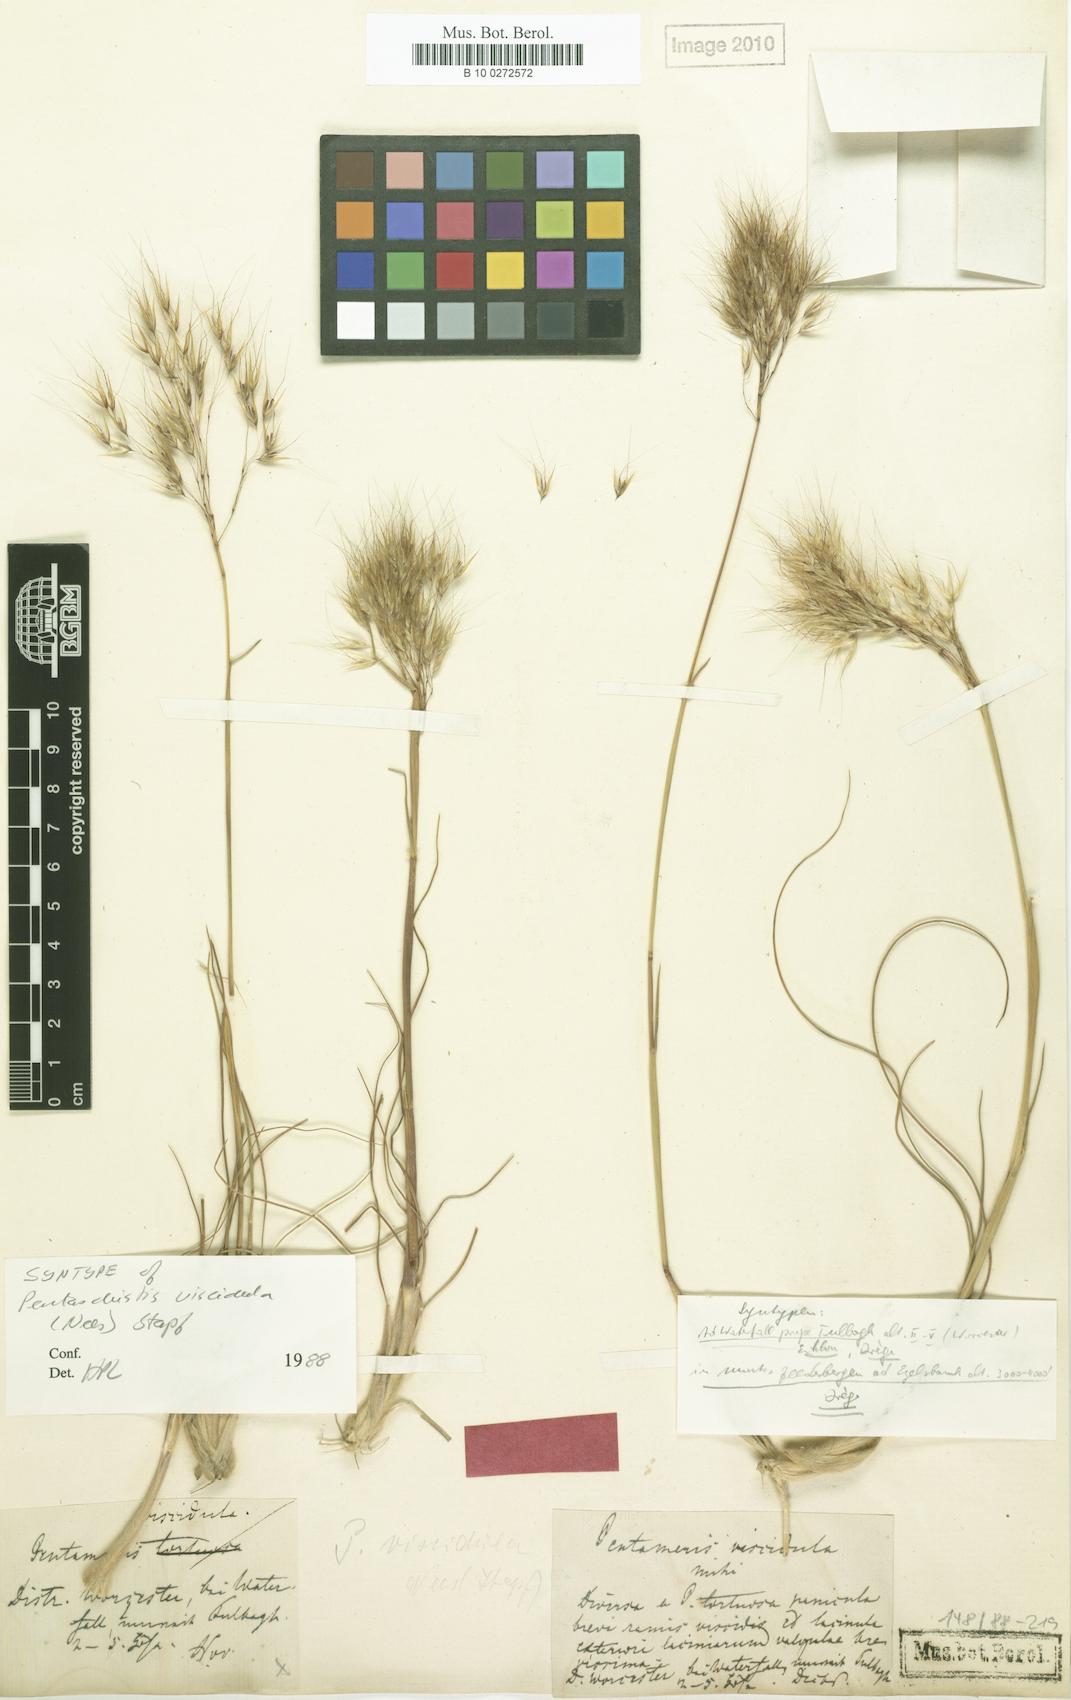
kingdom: Plantae
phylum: Tracheophyta
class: Liliopsida
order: Poales
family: Poaceae
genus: Pentameris
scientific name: Pentameris viscidula
